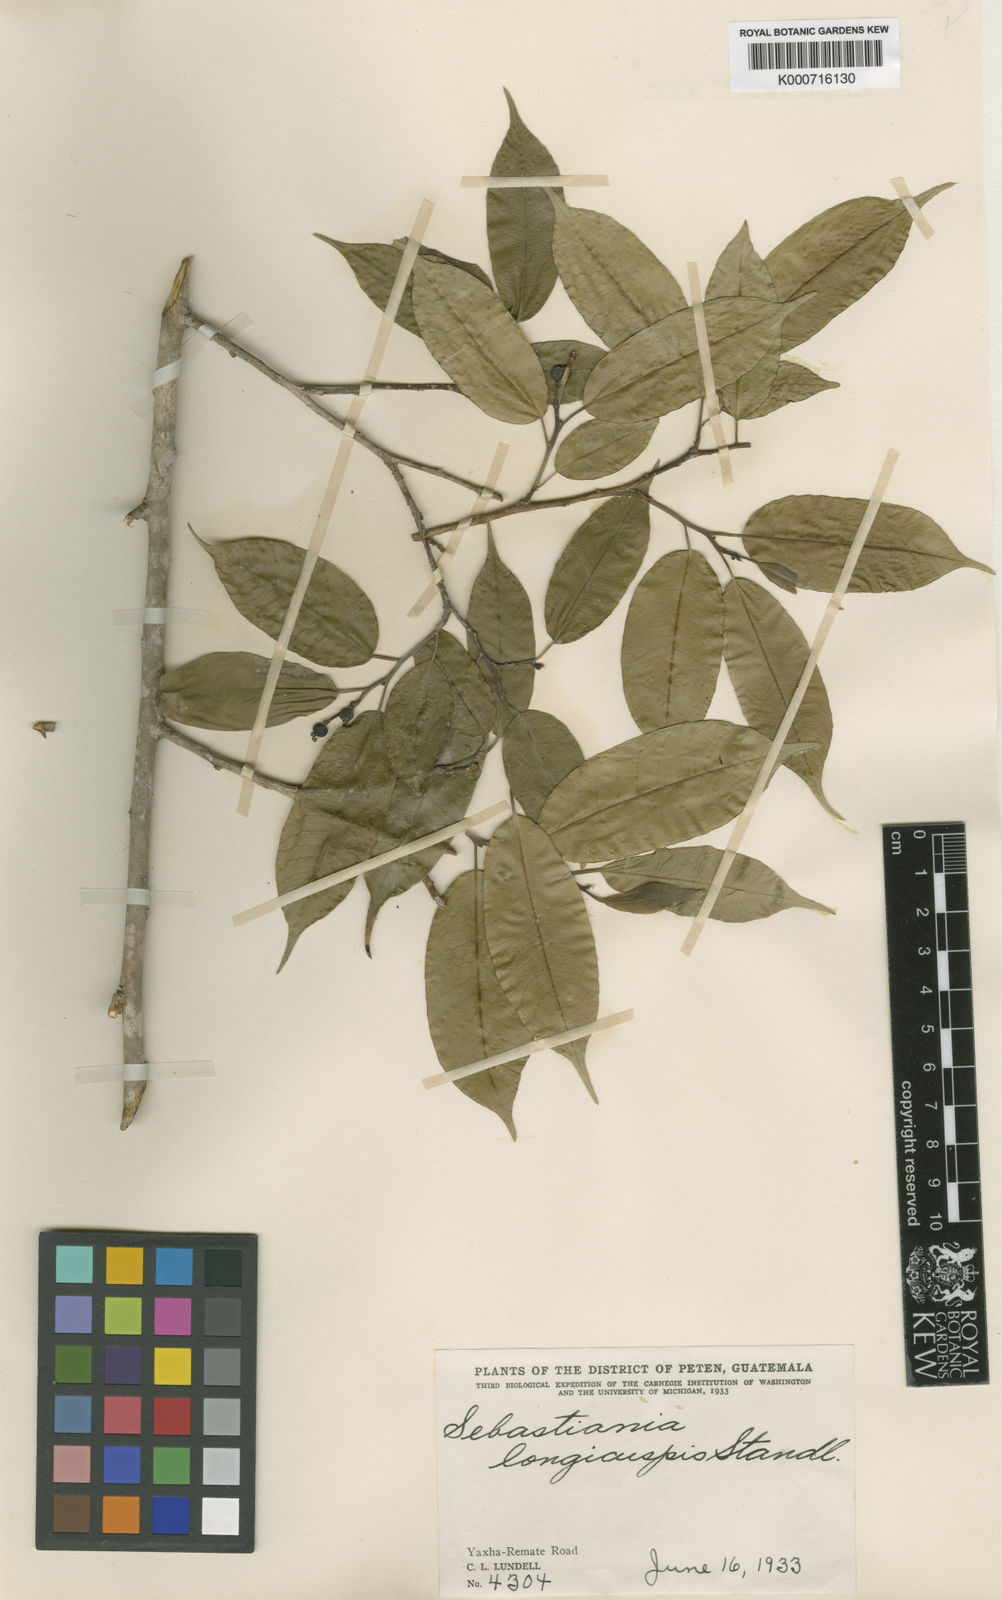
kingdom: Plantae
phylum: Tracheophyta
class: Magnoliopsida
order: Malpighiales
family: Euphorbiaceae
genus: Pleradenophora
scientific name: Pleradenophora
